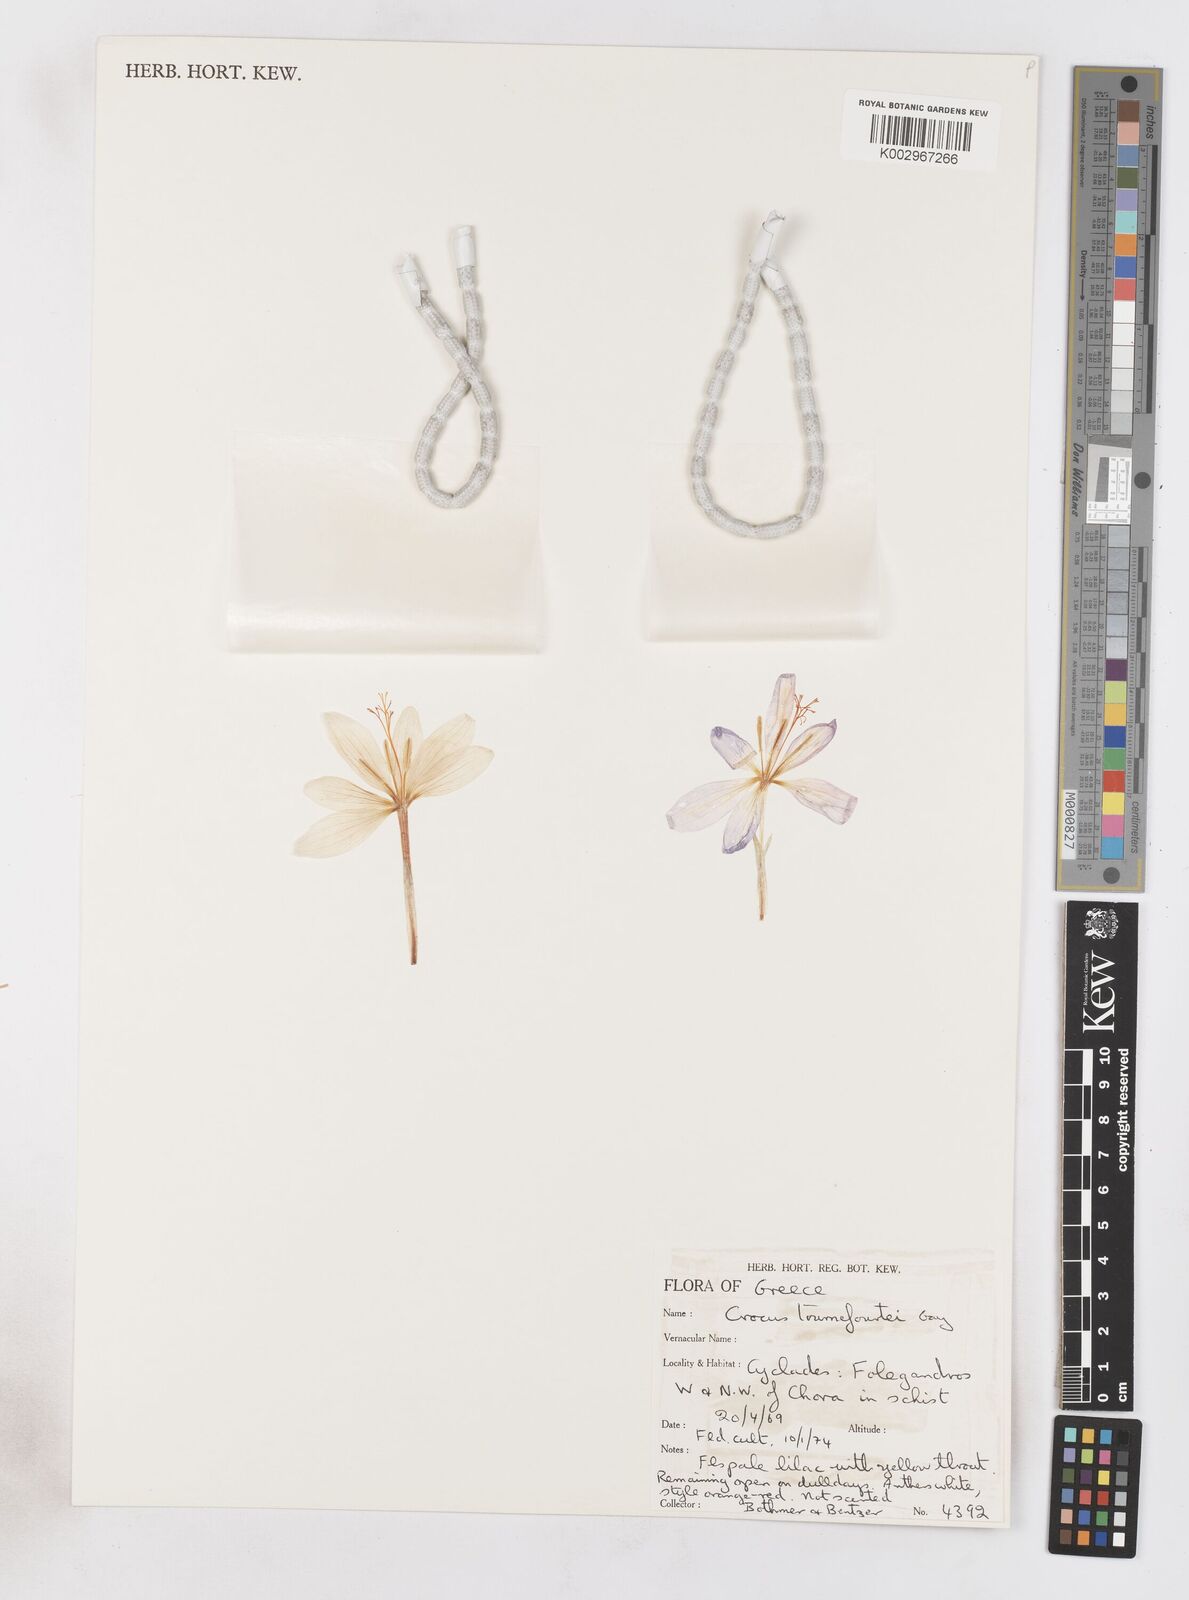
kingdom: Plantae
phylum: Tracheophyta
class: Liliopsida
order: Asparagales
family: Iridaceae
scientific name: Iridaceae
